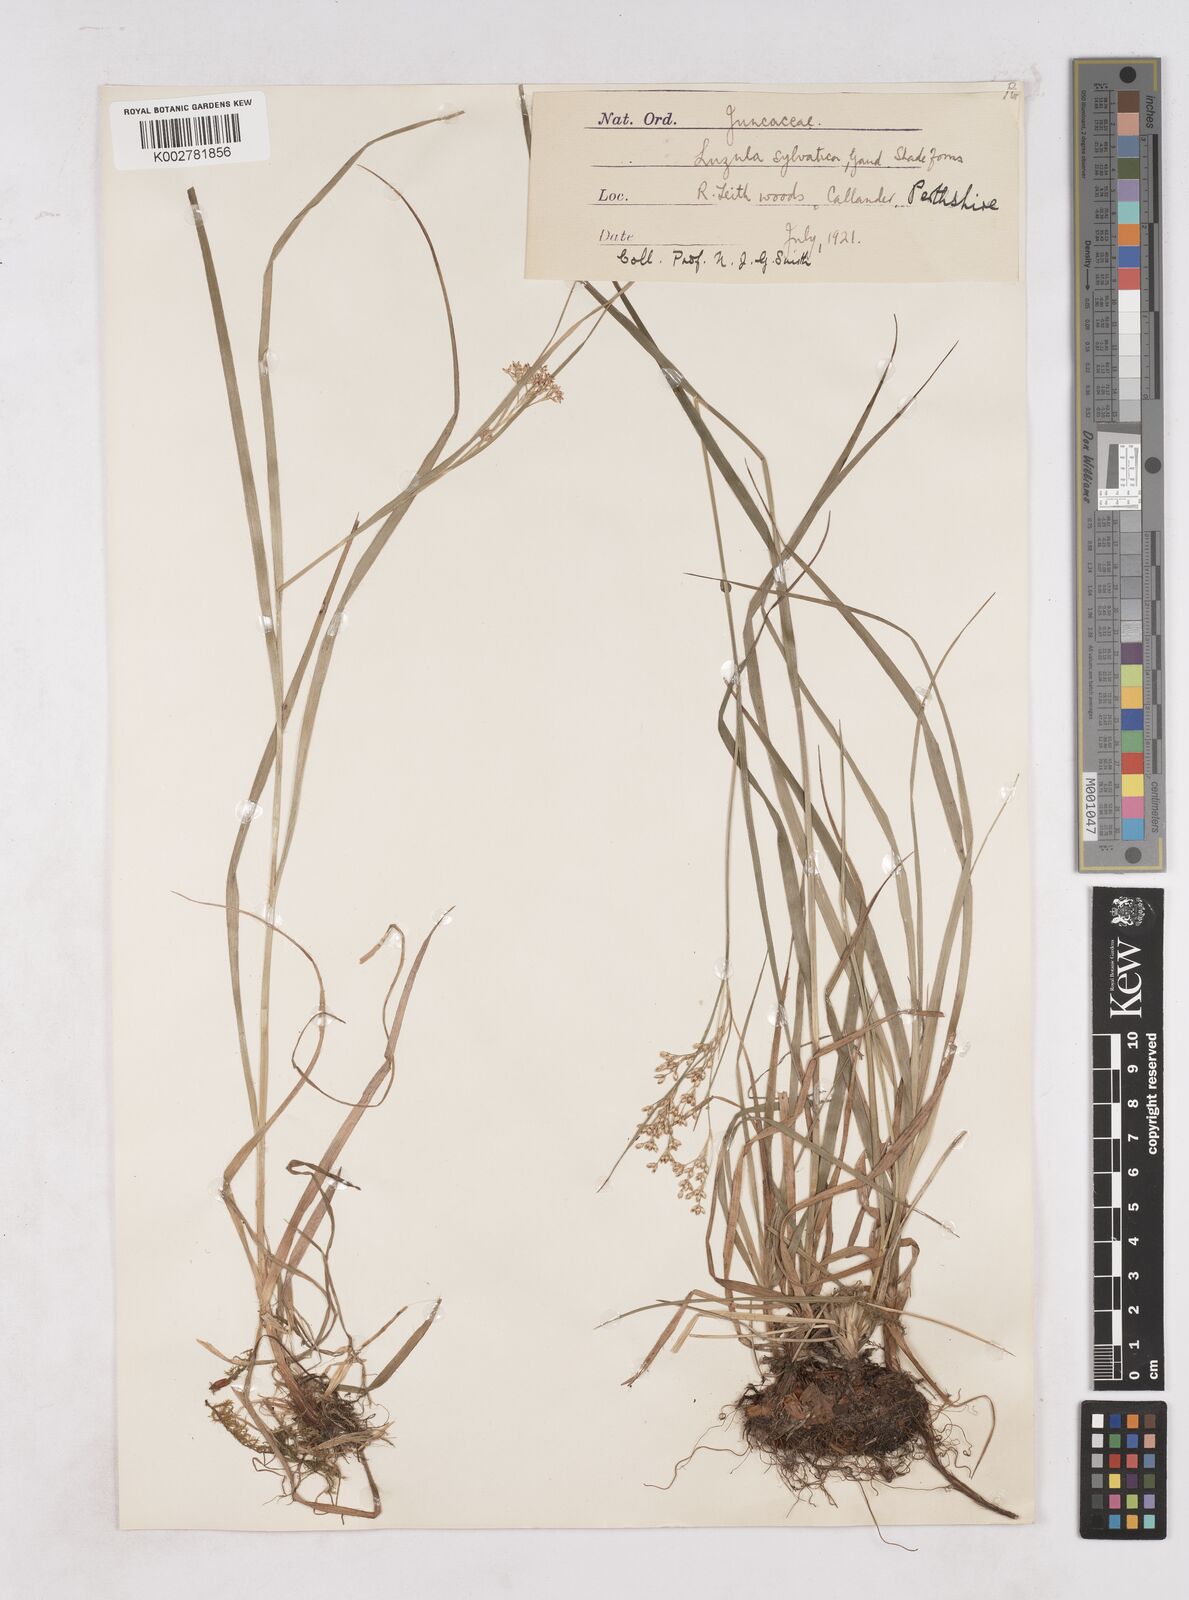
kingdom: Plantae
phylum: Tracheophyta
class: Liliopsida
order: Poales
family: Juncaceae
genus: Luzula
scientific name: Luzula sylvatica
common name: Great wood-rush
